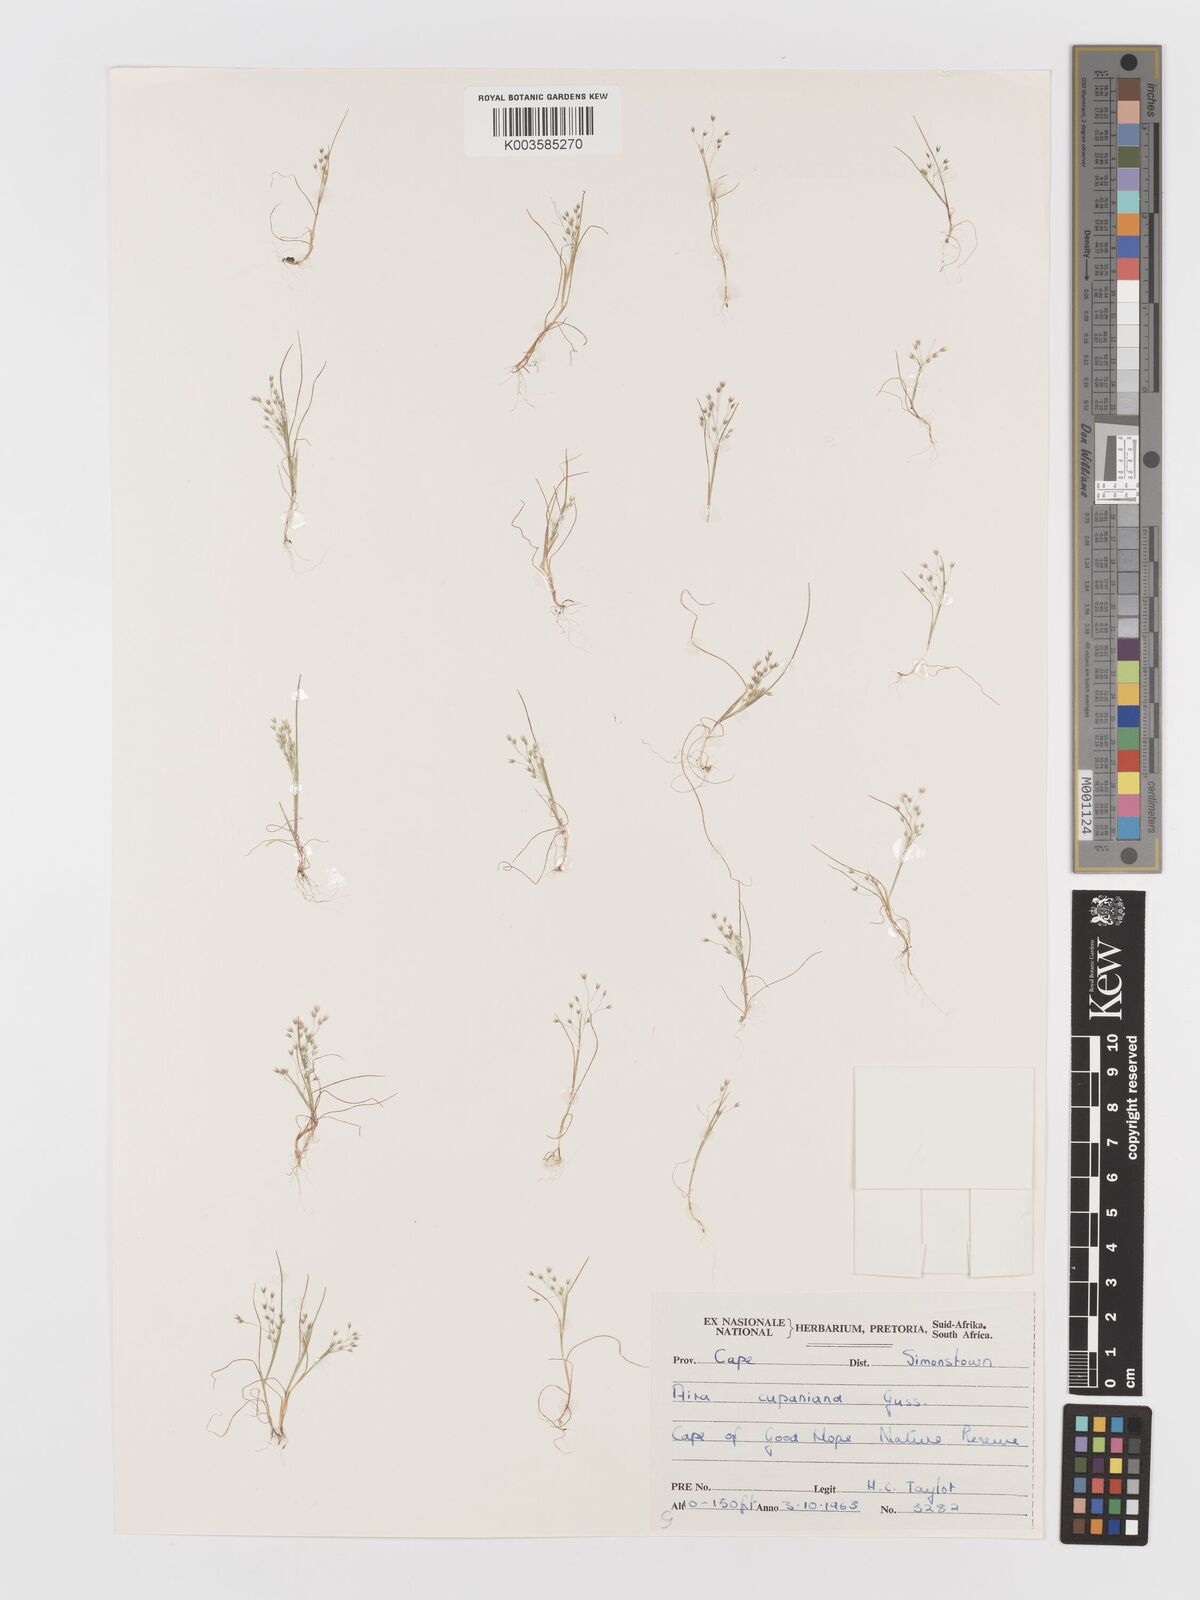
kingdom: Plantae
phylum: Tracheophyta
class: Liliopsida
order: Poales
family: Poaceae
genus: Aira
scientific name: Aira cupaniana
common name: Silver hairgrass
